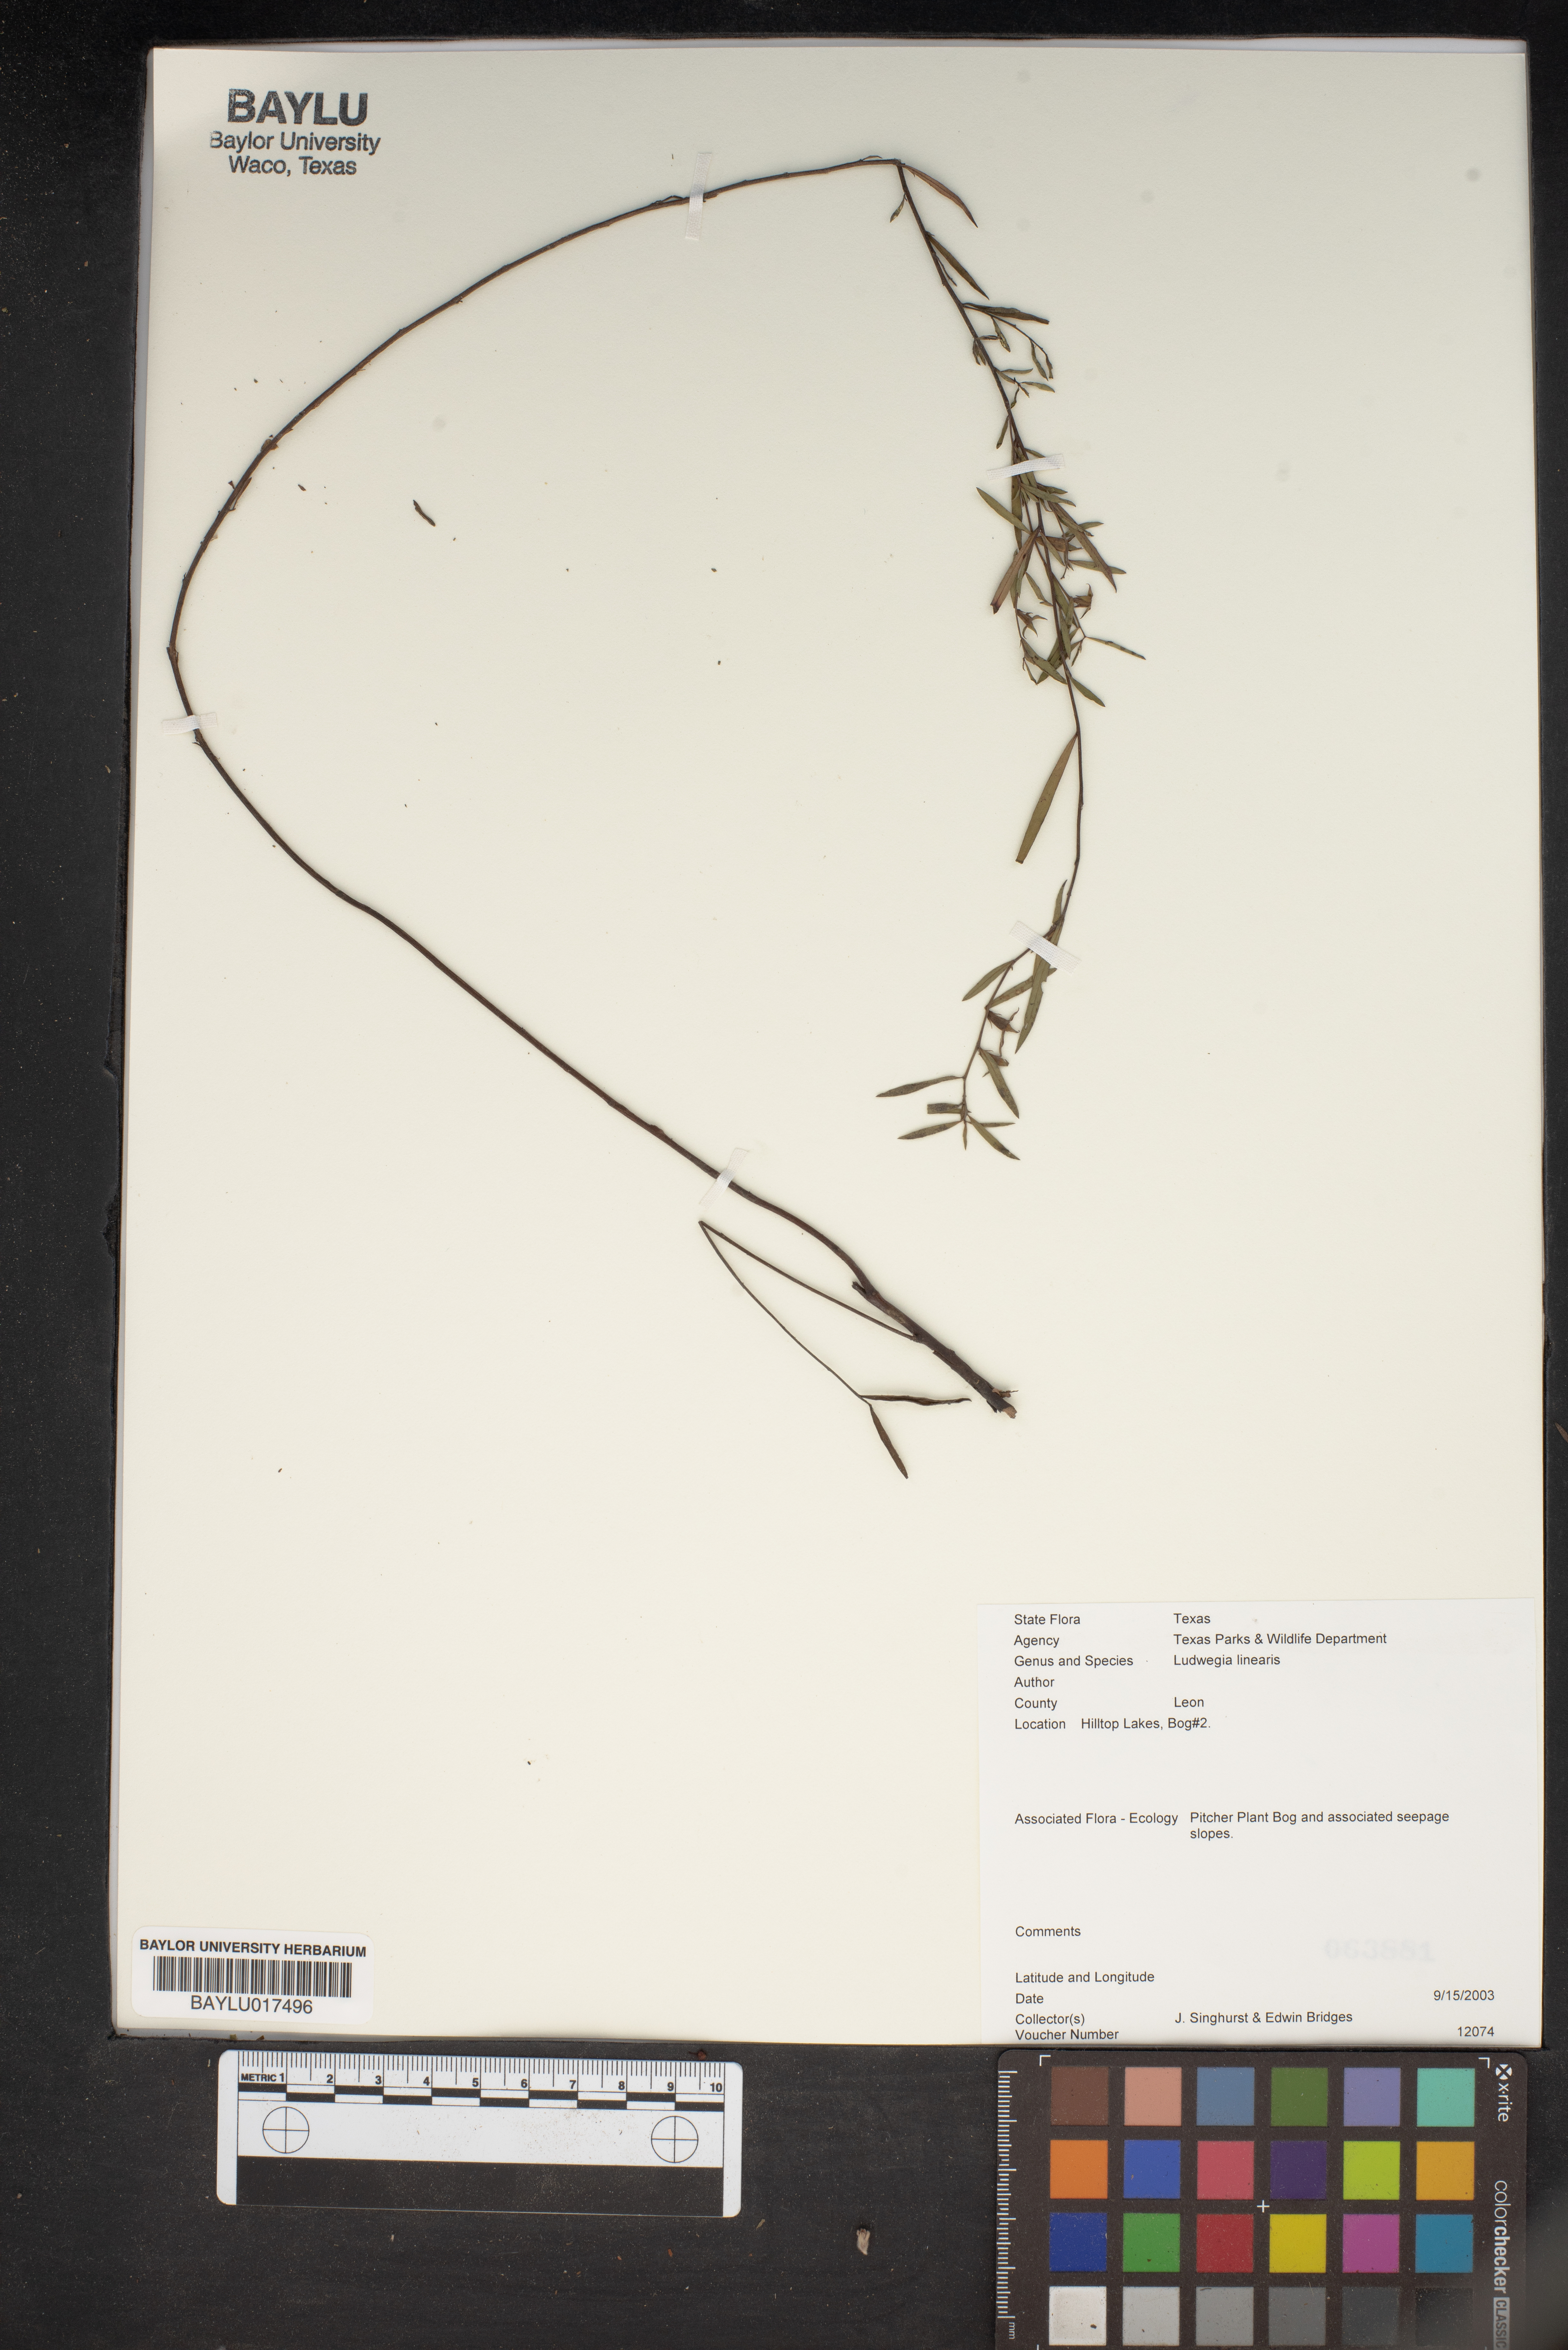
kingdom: Plantae
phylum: Tracheophyta
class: Magnoliopsida
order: Myrtales
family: Onagraceae
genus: Ludwigia
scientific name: Ludwigia linearis
